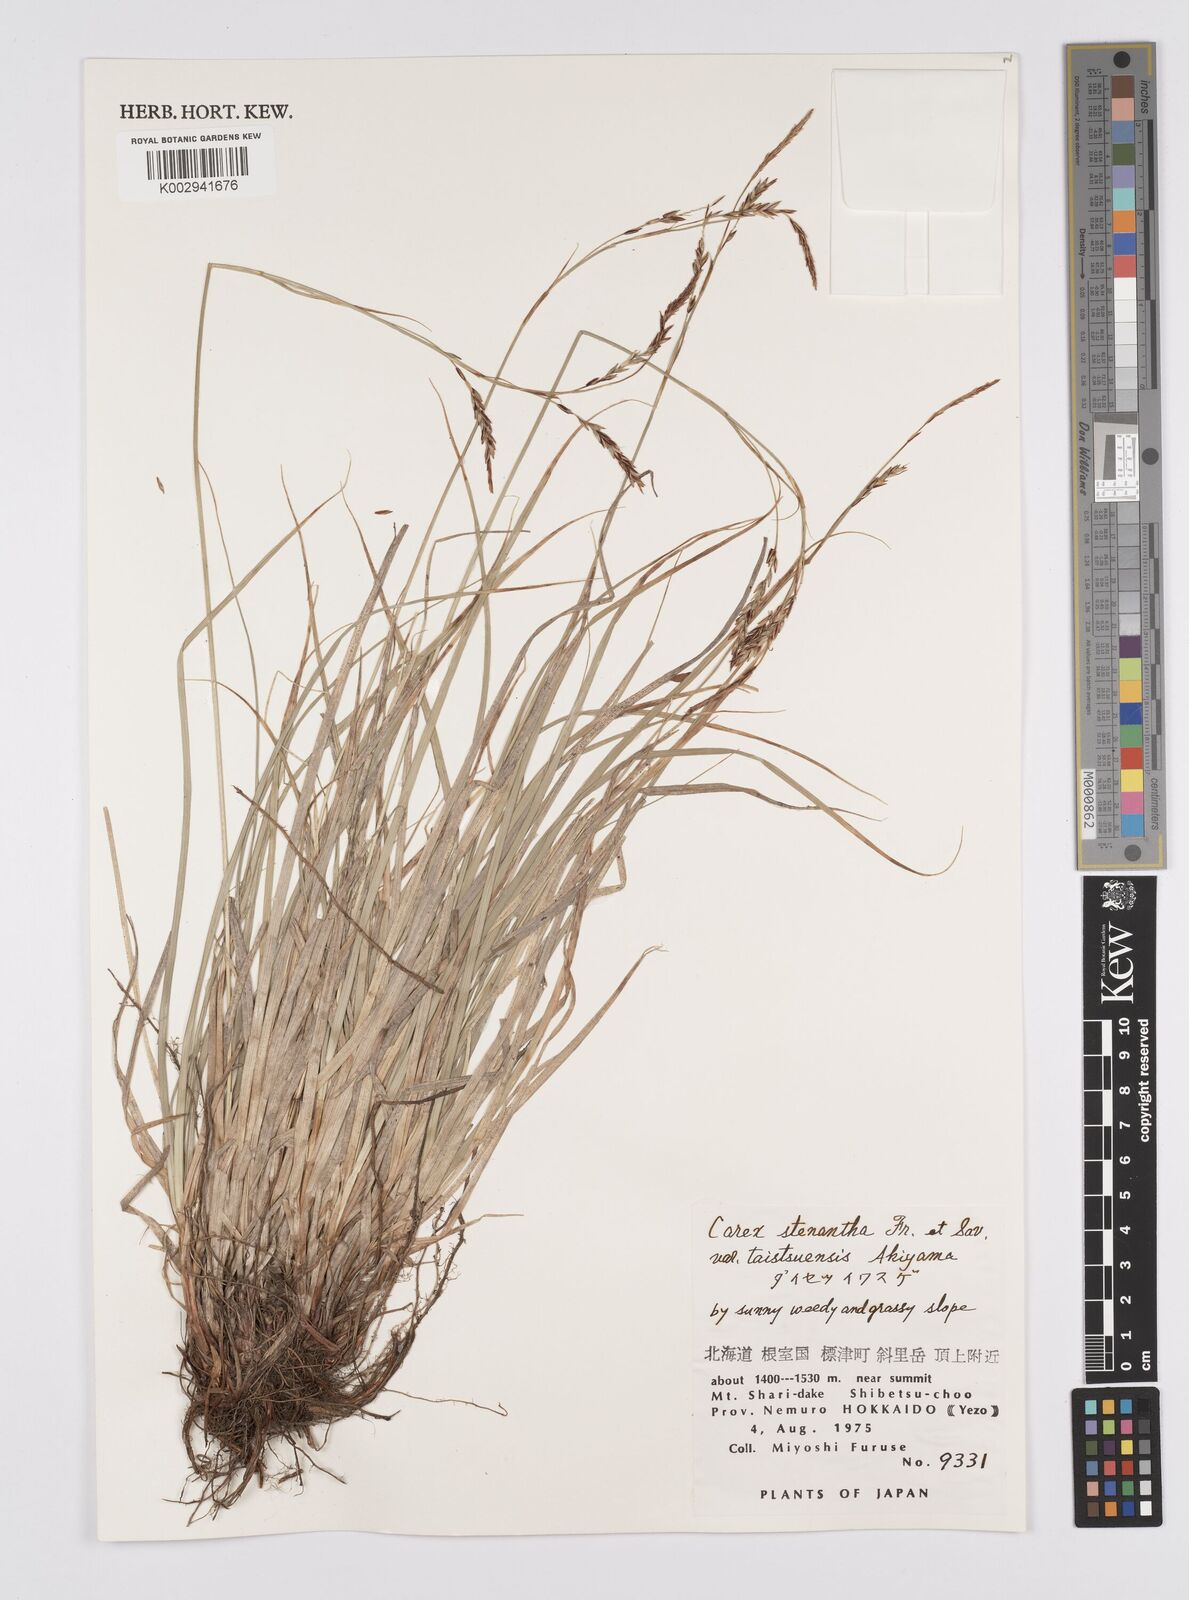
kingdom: Plantae
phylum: Tracheophyta
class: Liliopsida
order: Poales
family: Cyperaceae
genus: Carex
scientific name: Carex stenantha
